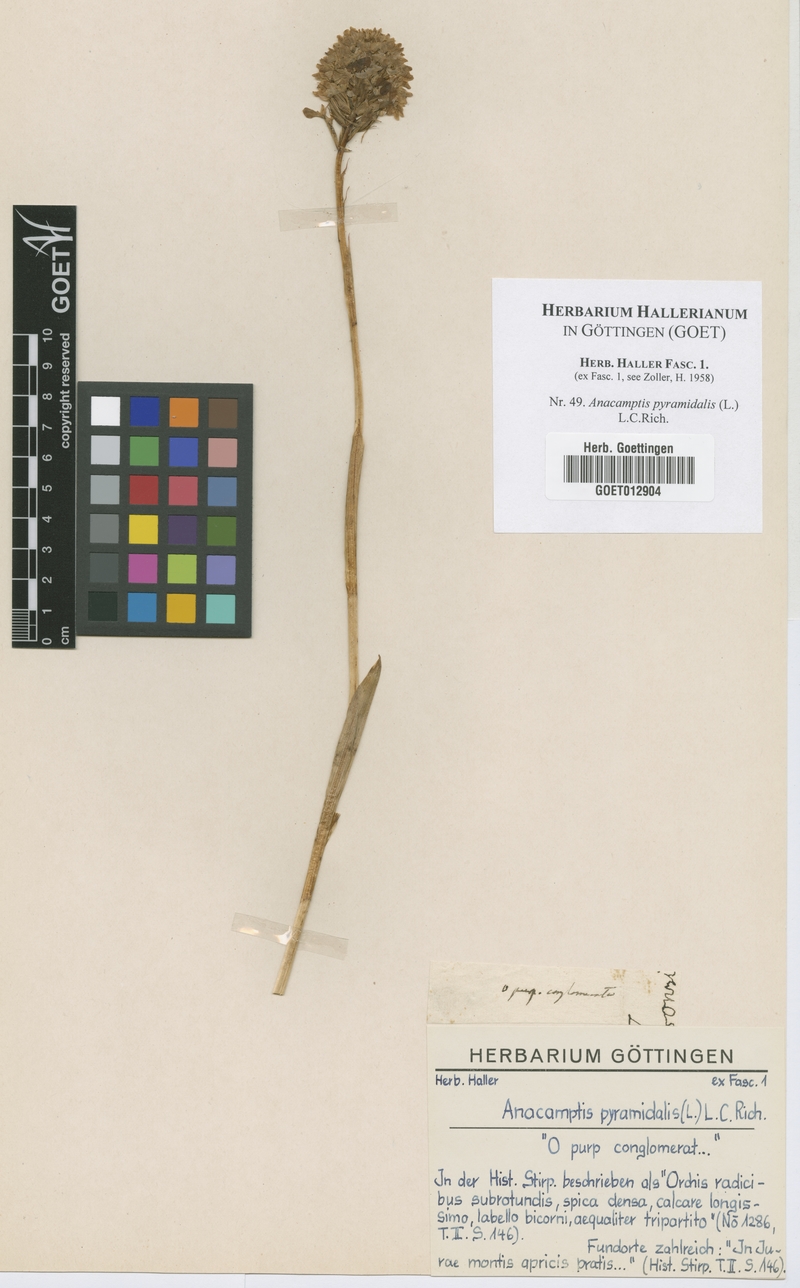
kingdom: Plantae
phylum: Tracheophyta
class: Liliopsida
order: Asparagales
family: Orchidaceae
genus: Anacamptis
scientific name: Anacamptis pyramidalis
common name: Pyramidal orchid
